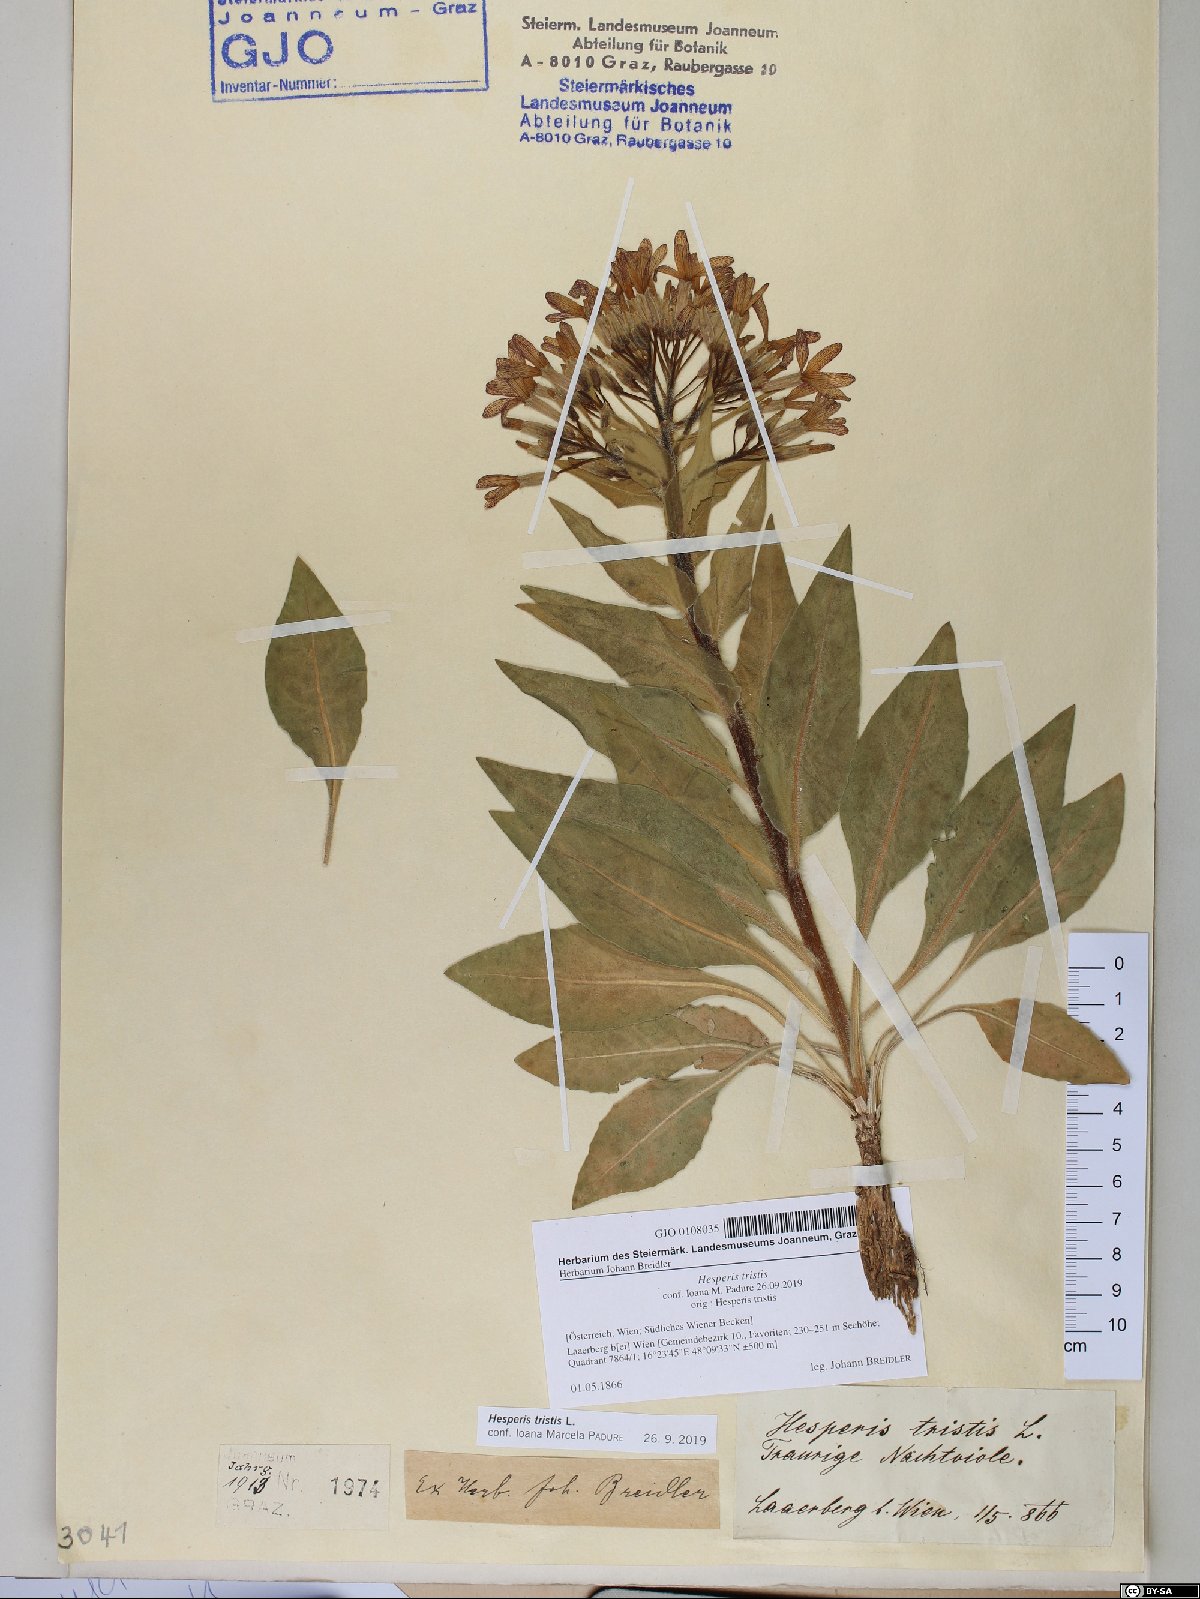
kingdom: Plantae
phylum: Tracheophyta
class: Magnoliopsida
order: Brassicales
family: Brassicaceae
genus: Hesperis
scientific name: Hesperis tristis
